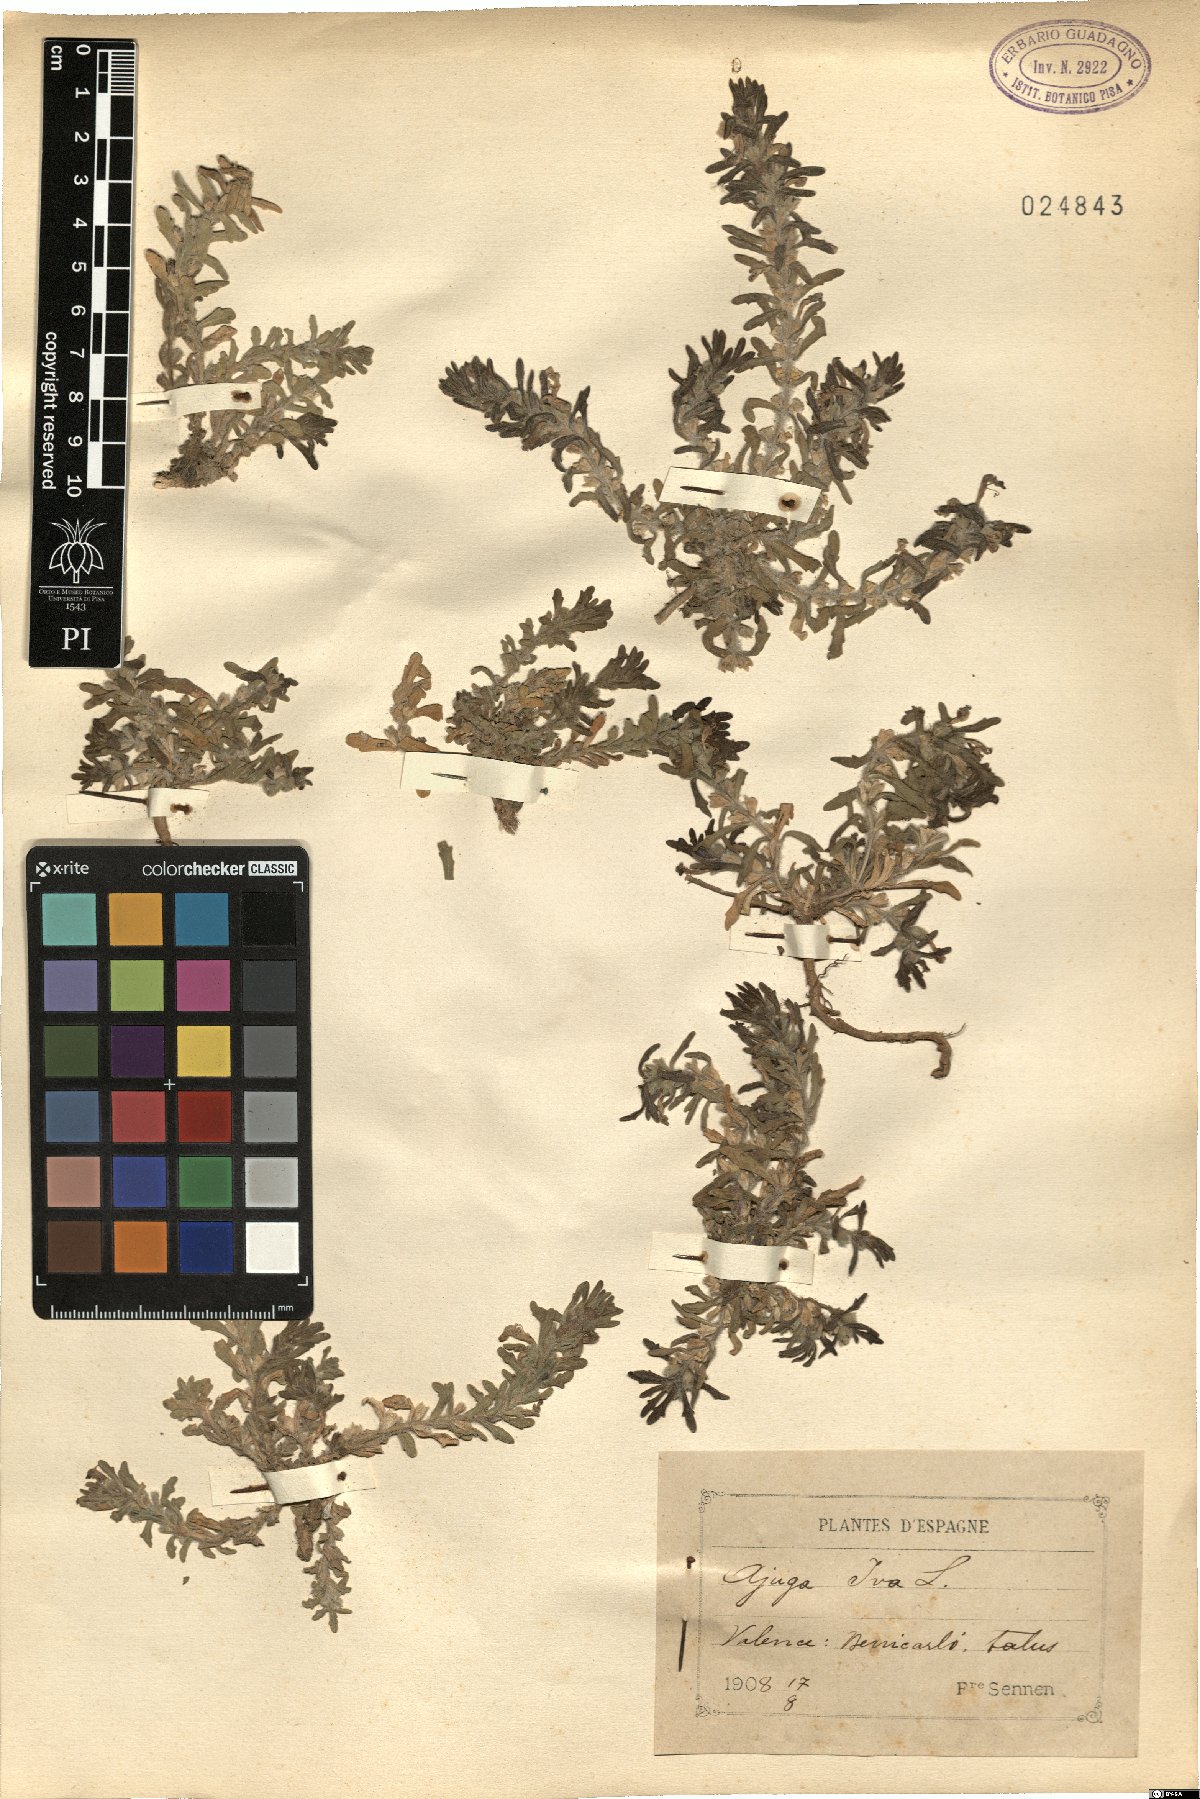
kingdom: Plantae
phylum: Tracheophyta
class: Magnoliopsida
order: Lamiales
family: Lamiaceae
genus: Ajuga
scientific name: Ajuga iva
